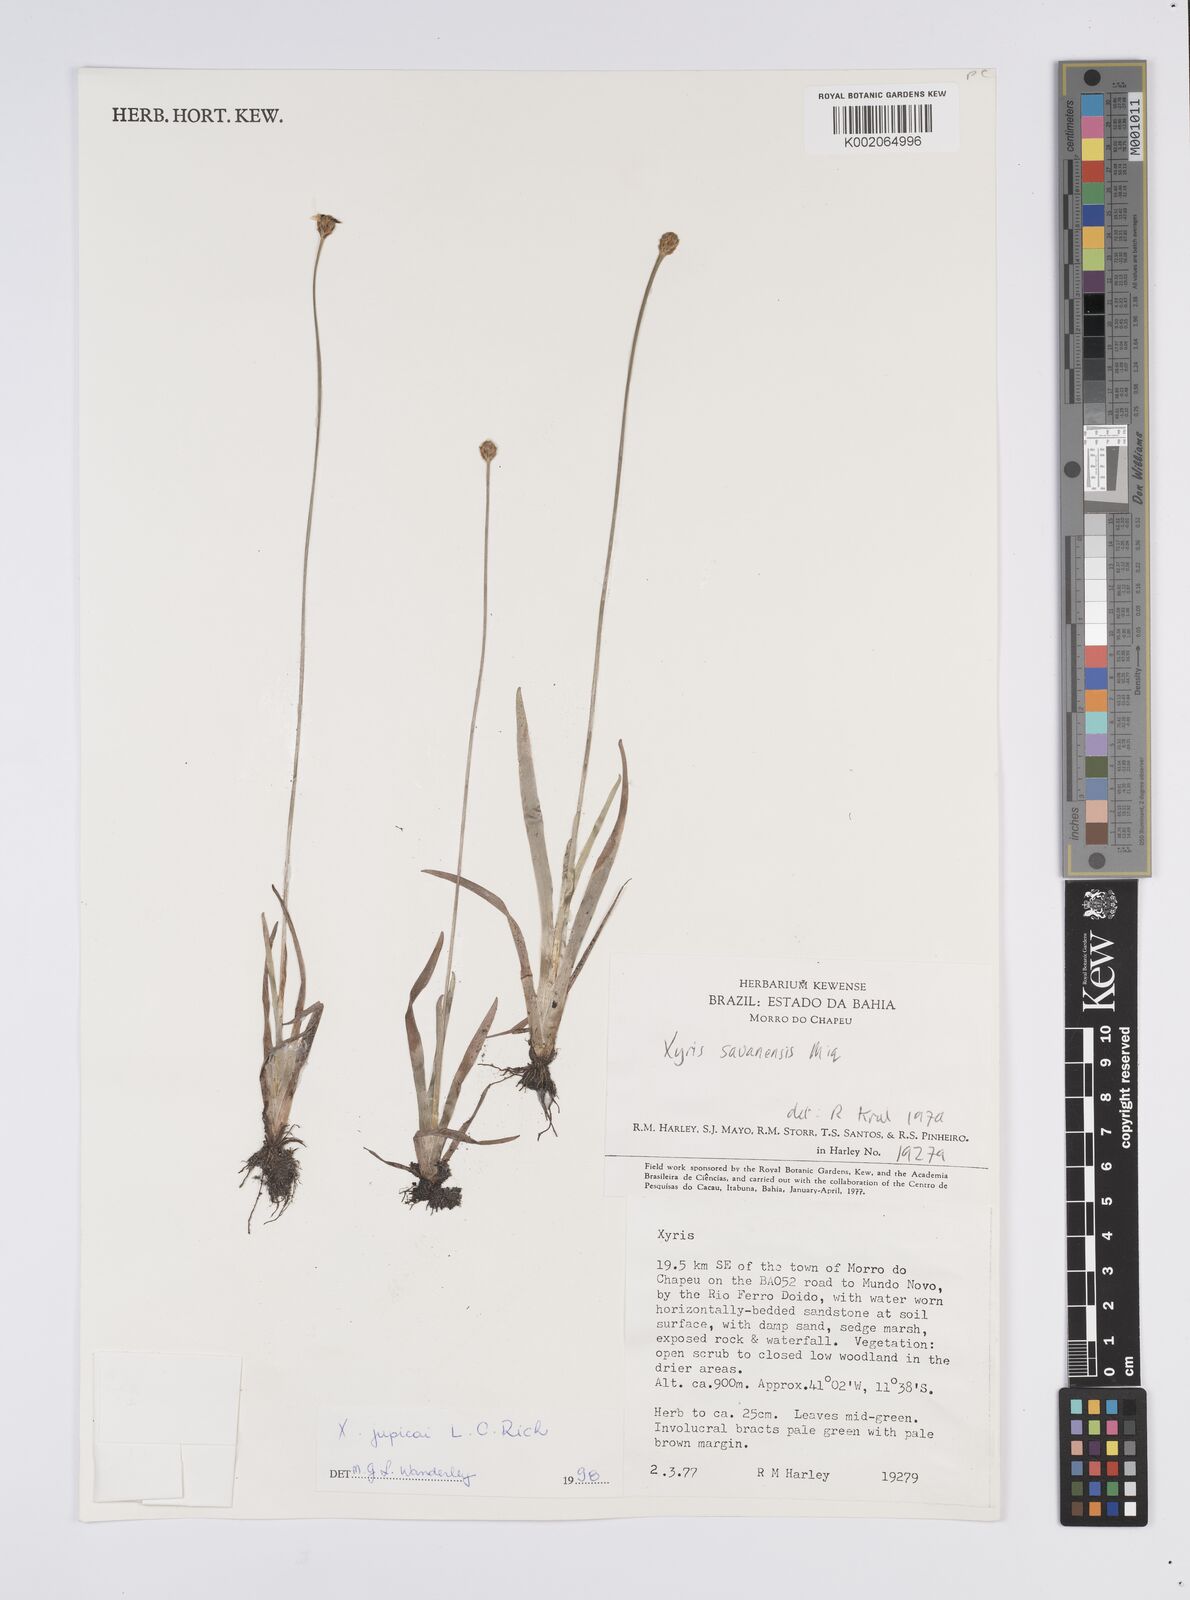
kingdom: Plantae
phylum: Tracheophyta
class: Liliopsida
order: Poales
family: Xyridaceae
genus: Xyris
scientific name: Xyris jupicai
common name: Richard's yelloweyed grass
